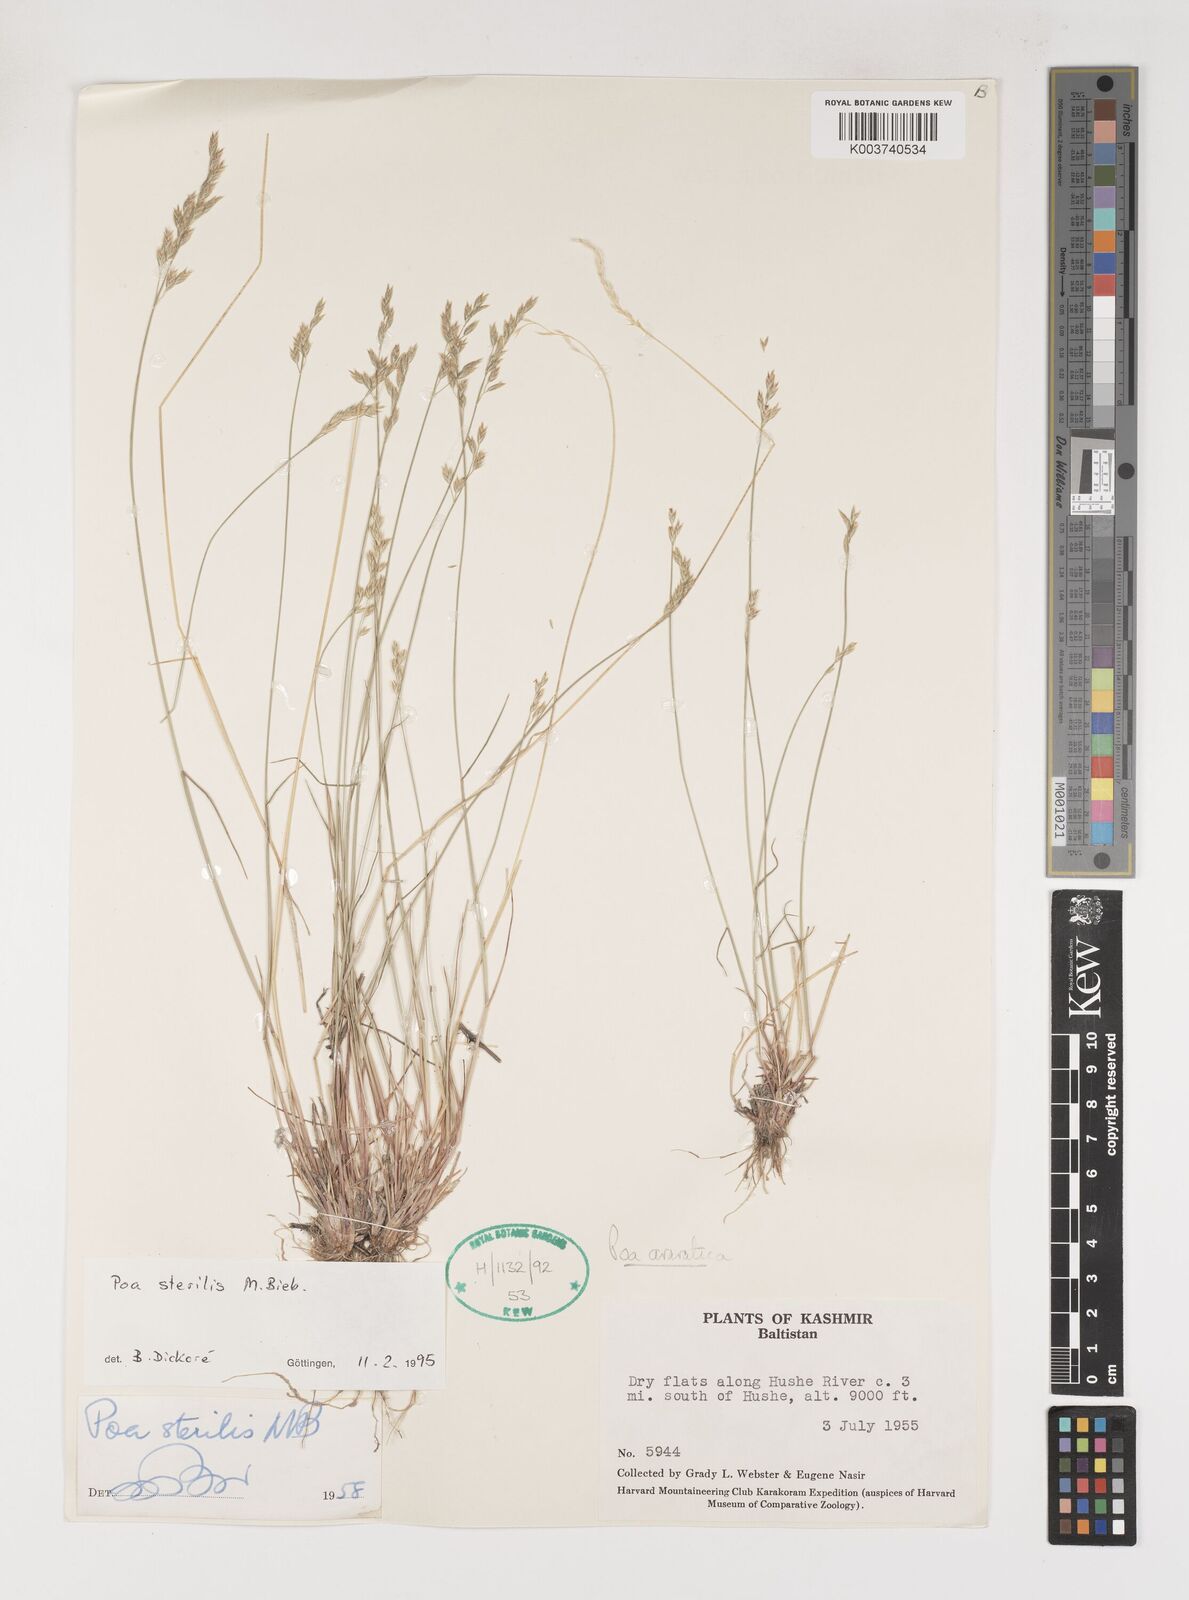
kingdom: Plantae
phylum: Tracheophyta
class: Liliopsida
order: Poales
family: Poaceae
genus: Poa
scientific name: Poa sterilis
